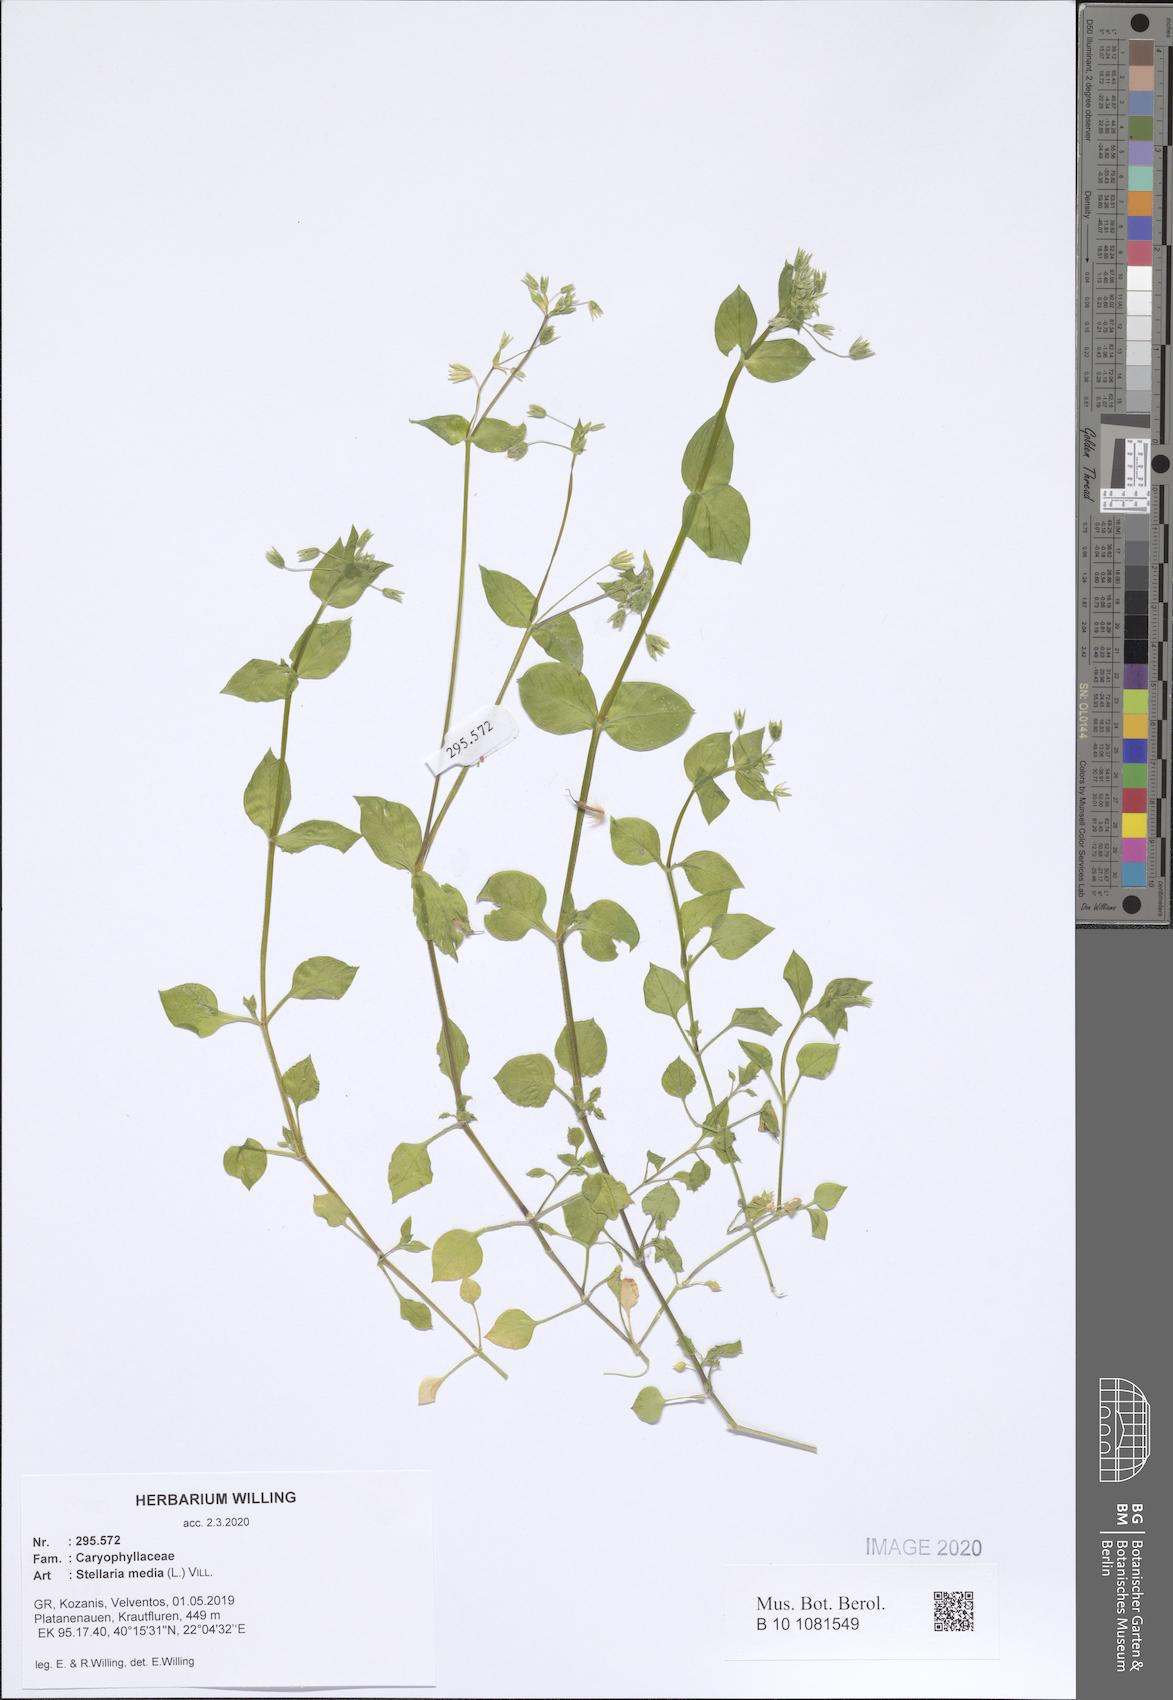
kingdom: Plantae
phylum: Tracheophyta
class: Magnoliopsida
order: Caryophyllales
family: Caryophyllaceae
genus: Stellaria
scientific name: Stellaria media
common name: Common chickweed
